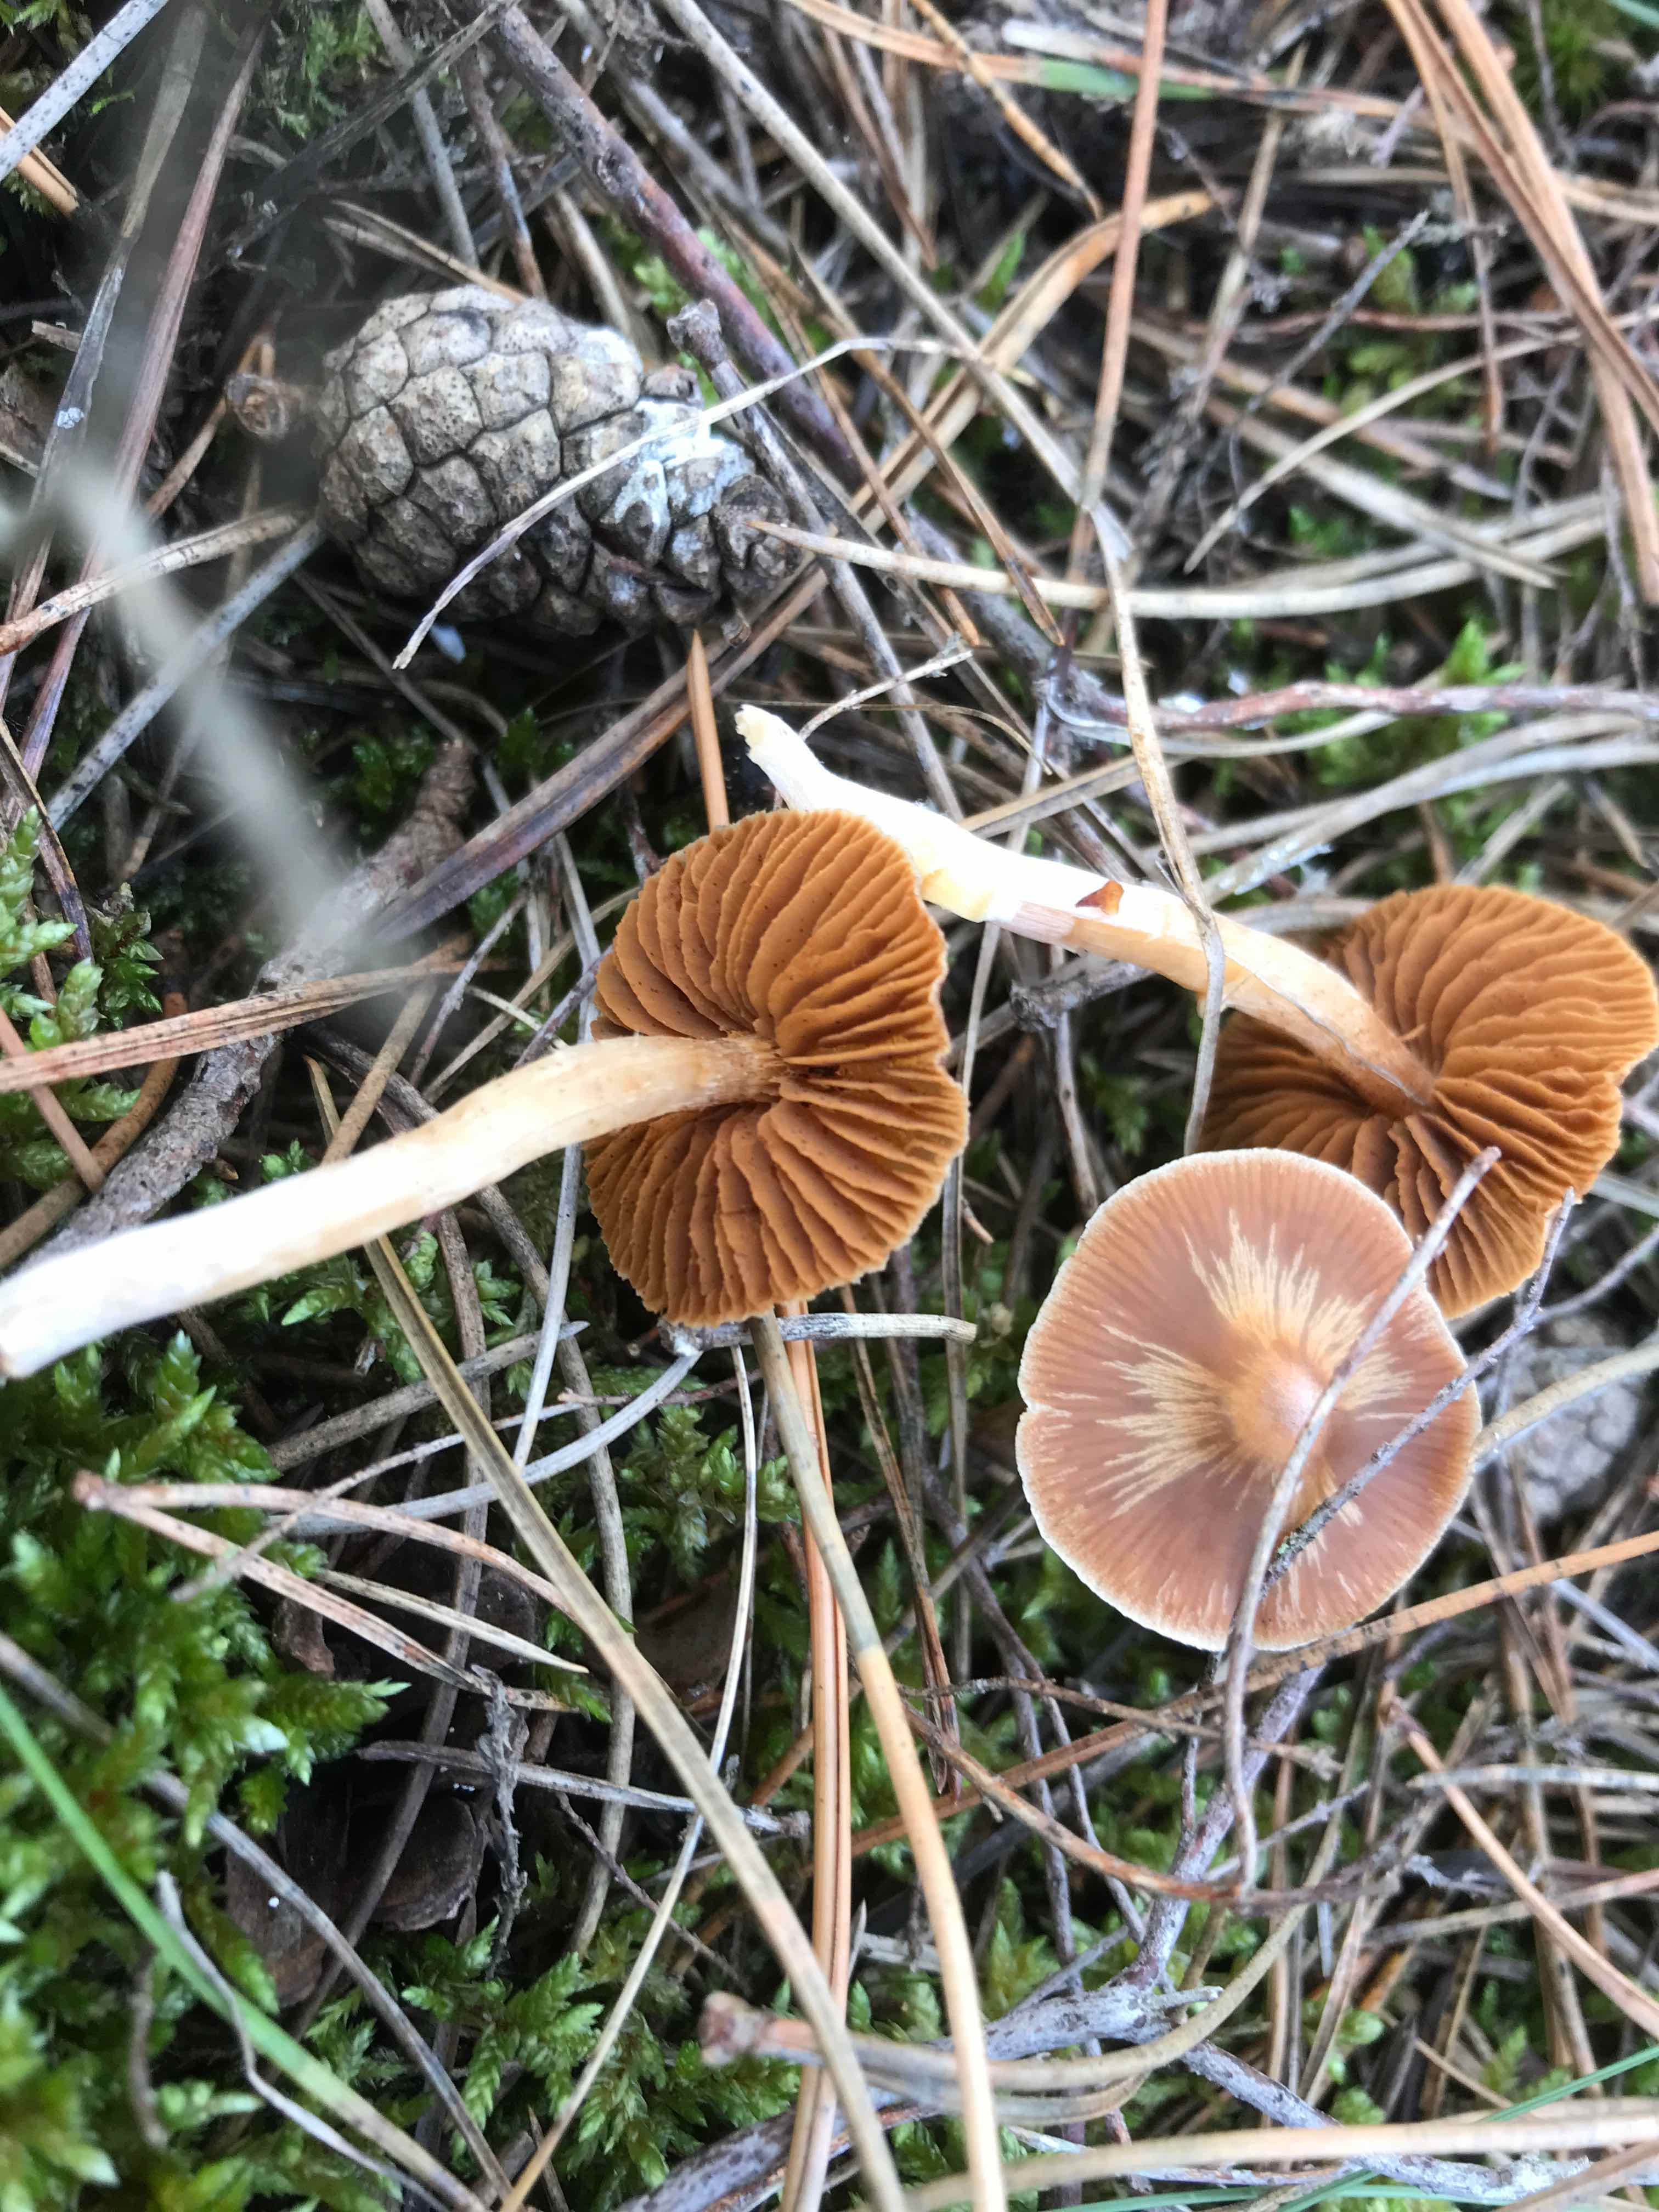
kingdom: Fungi
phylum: Basidiomycota
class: Agaricomycetes
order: Agaricales
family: Cortinariaceae
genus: Cortinarius
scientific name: Cortinarius
